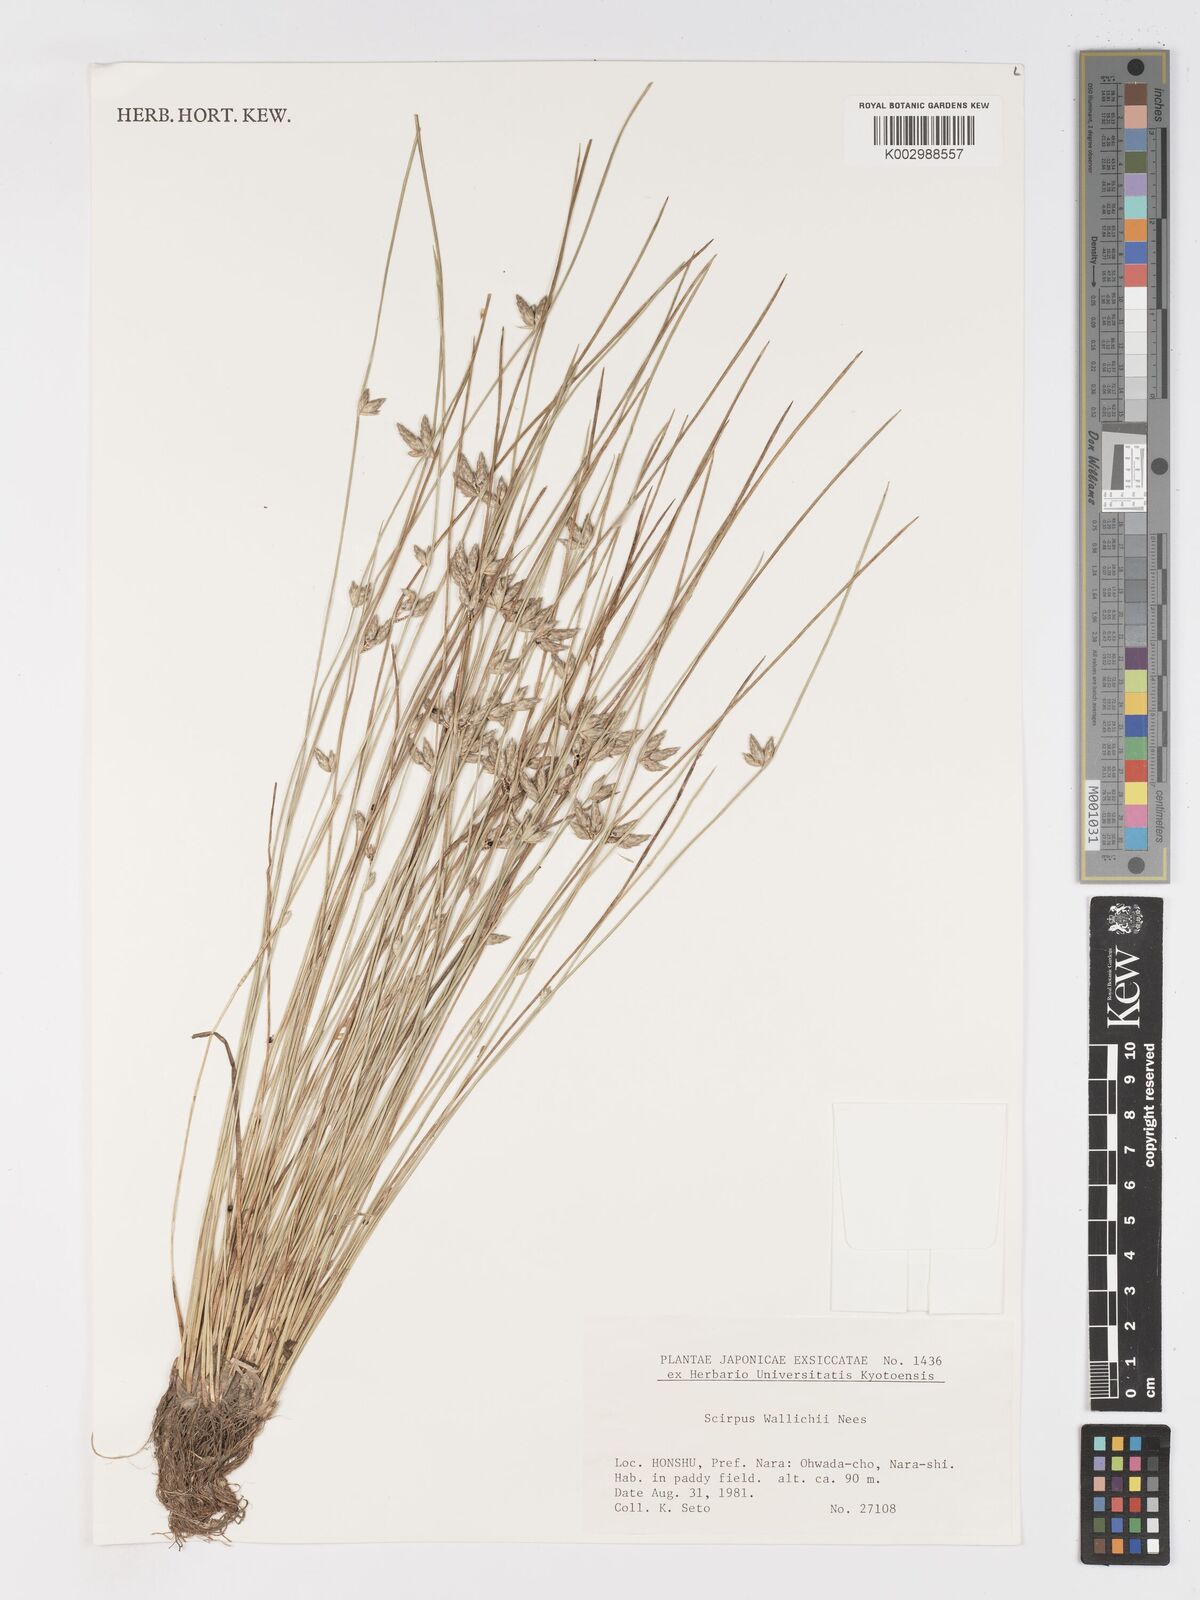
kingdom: Plantae
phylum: Tracheophyta
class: Liliopsida
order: Poales
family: Cyperaceae
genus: Schoenoplectiella
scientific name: Schoenoplectiella wallichii
